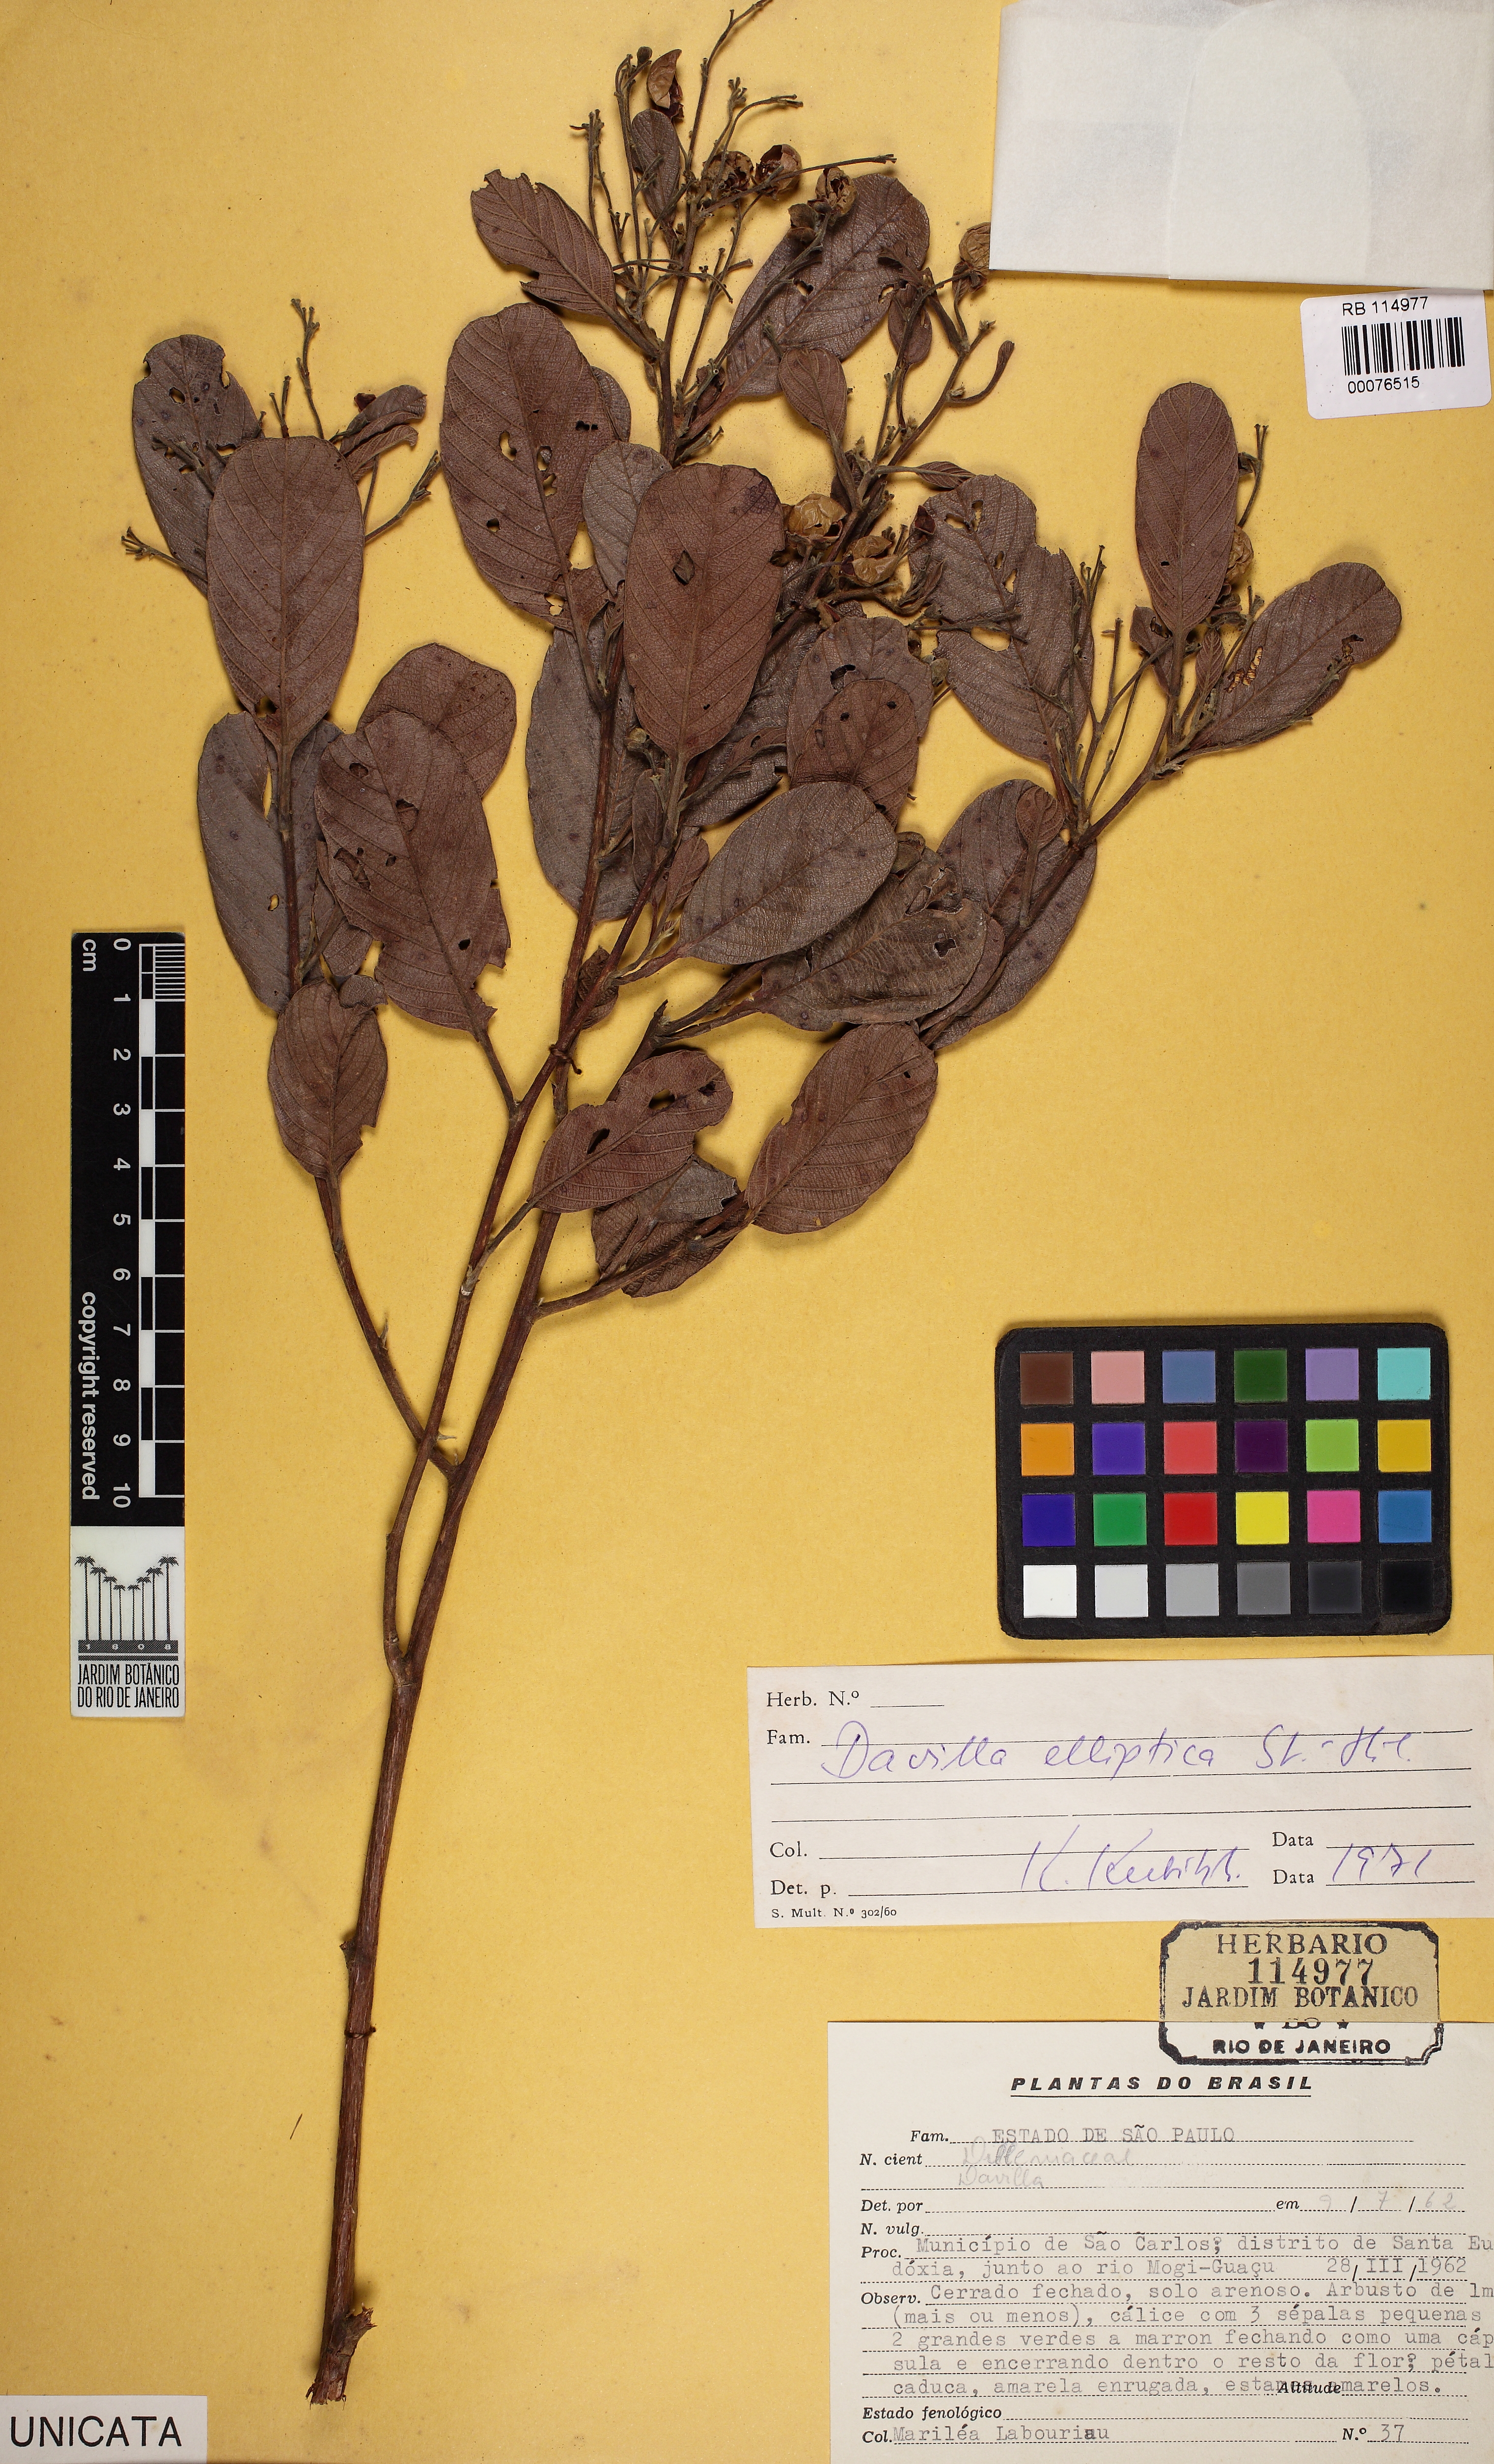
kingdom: Plantae
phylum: Tracheophyta
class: Magnoliopsida
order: Dilleniales
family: Dilleniaceae
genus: Davilla
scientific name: Davilla elliptica
